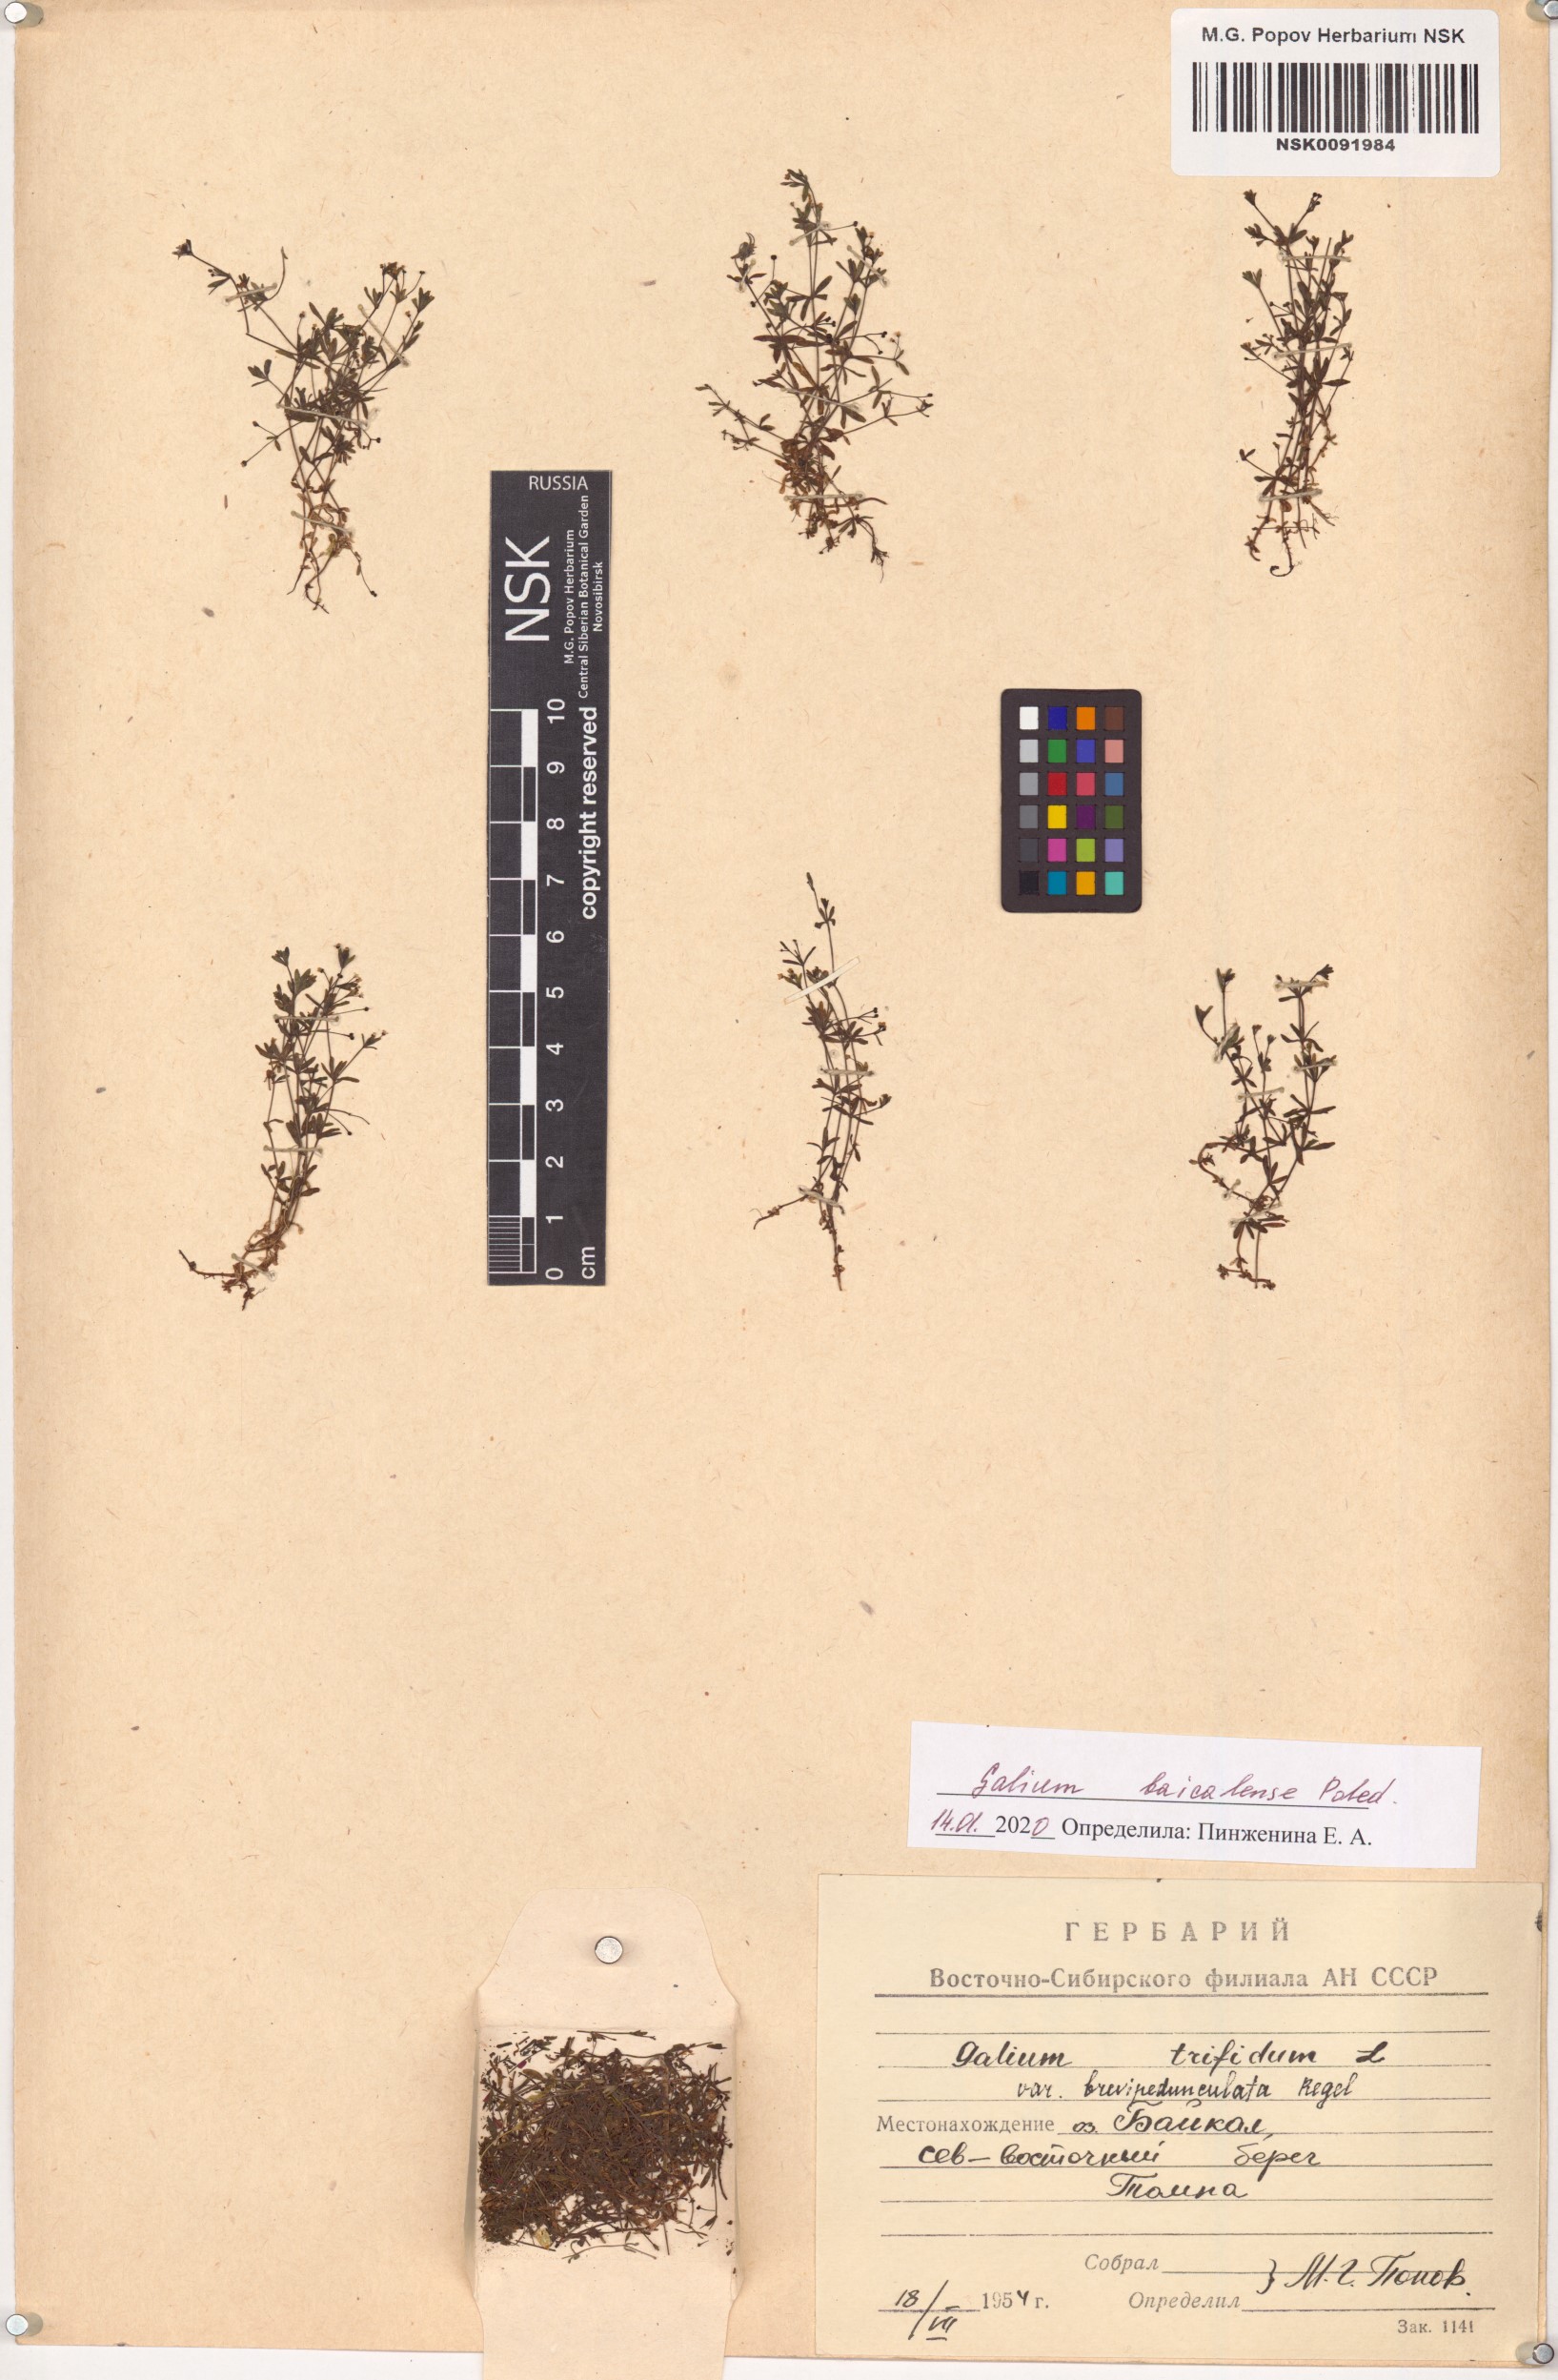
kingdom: Plantae
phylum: Tracheophyta
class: Magnoliopsida
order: Gentianales
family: Rubiaceae
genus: Galium
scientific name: Galium trifidum
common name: Small bedstraw
